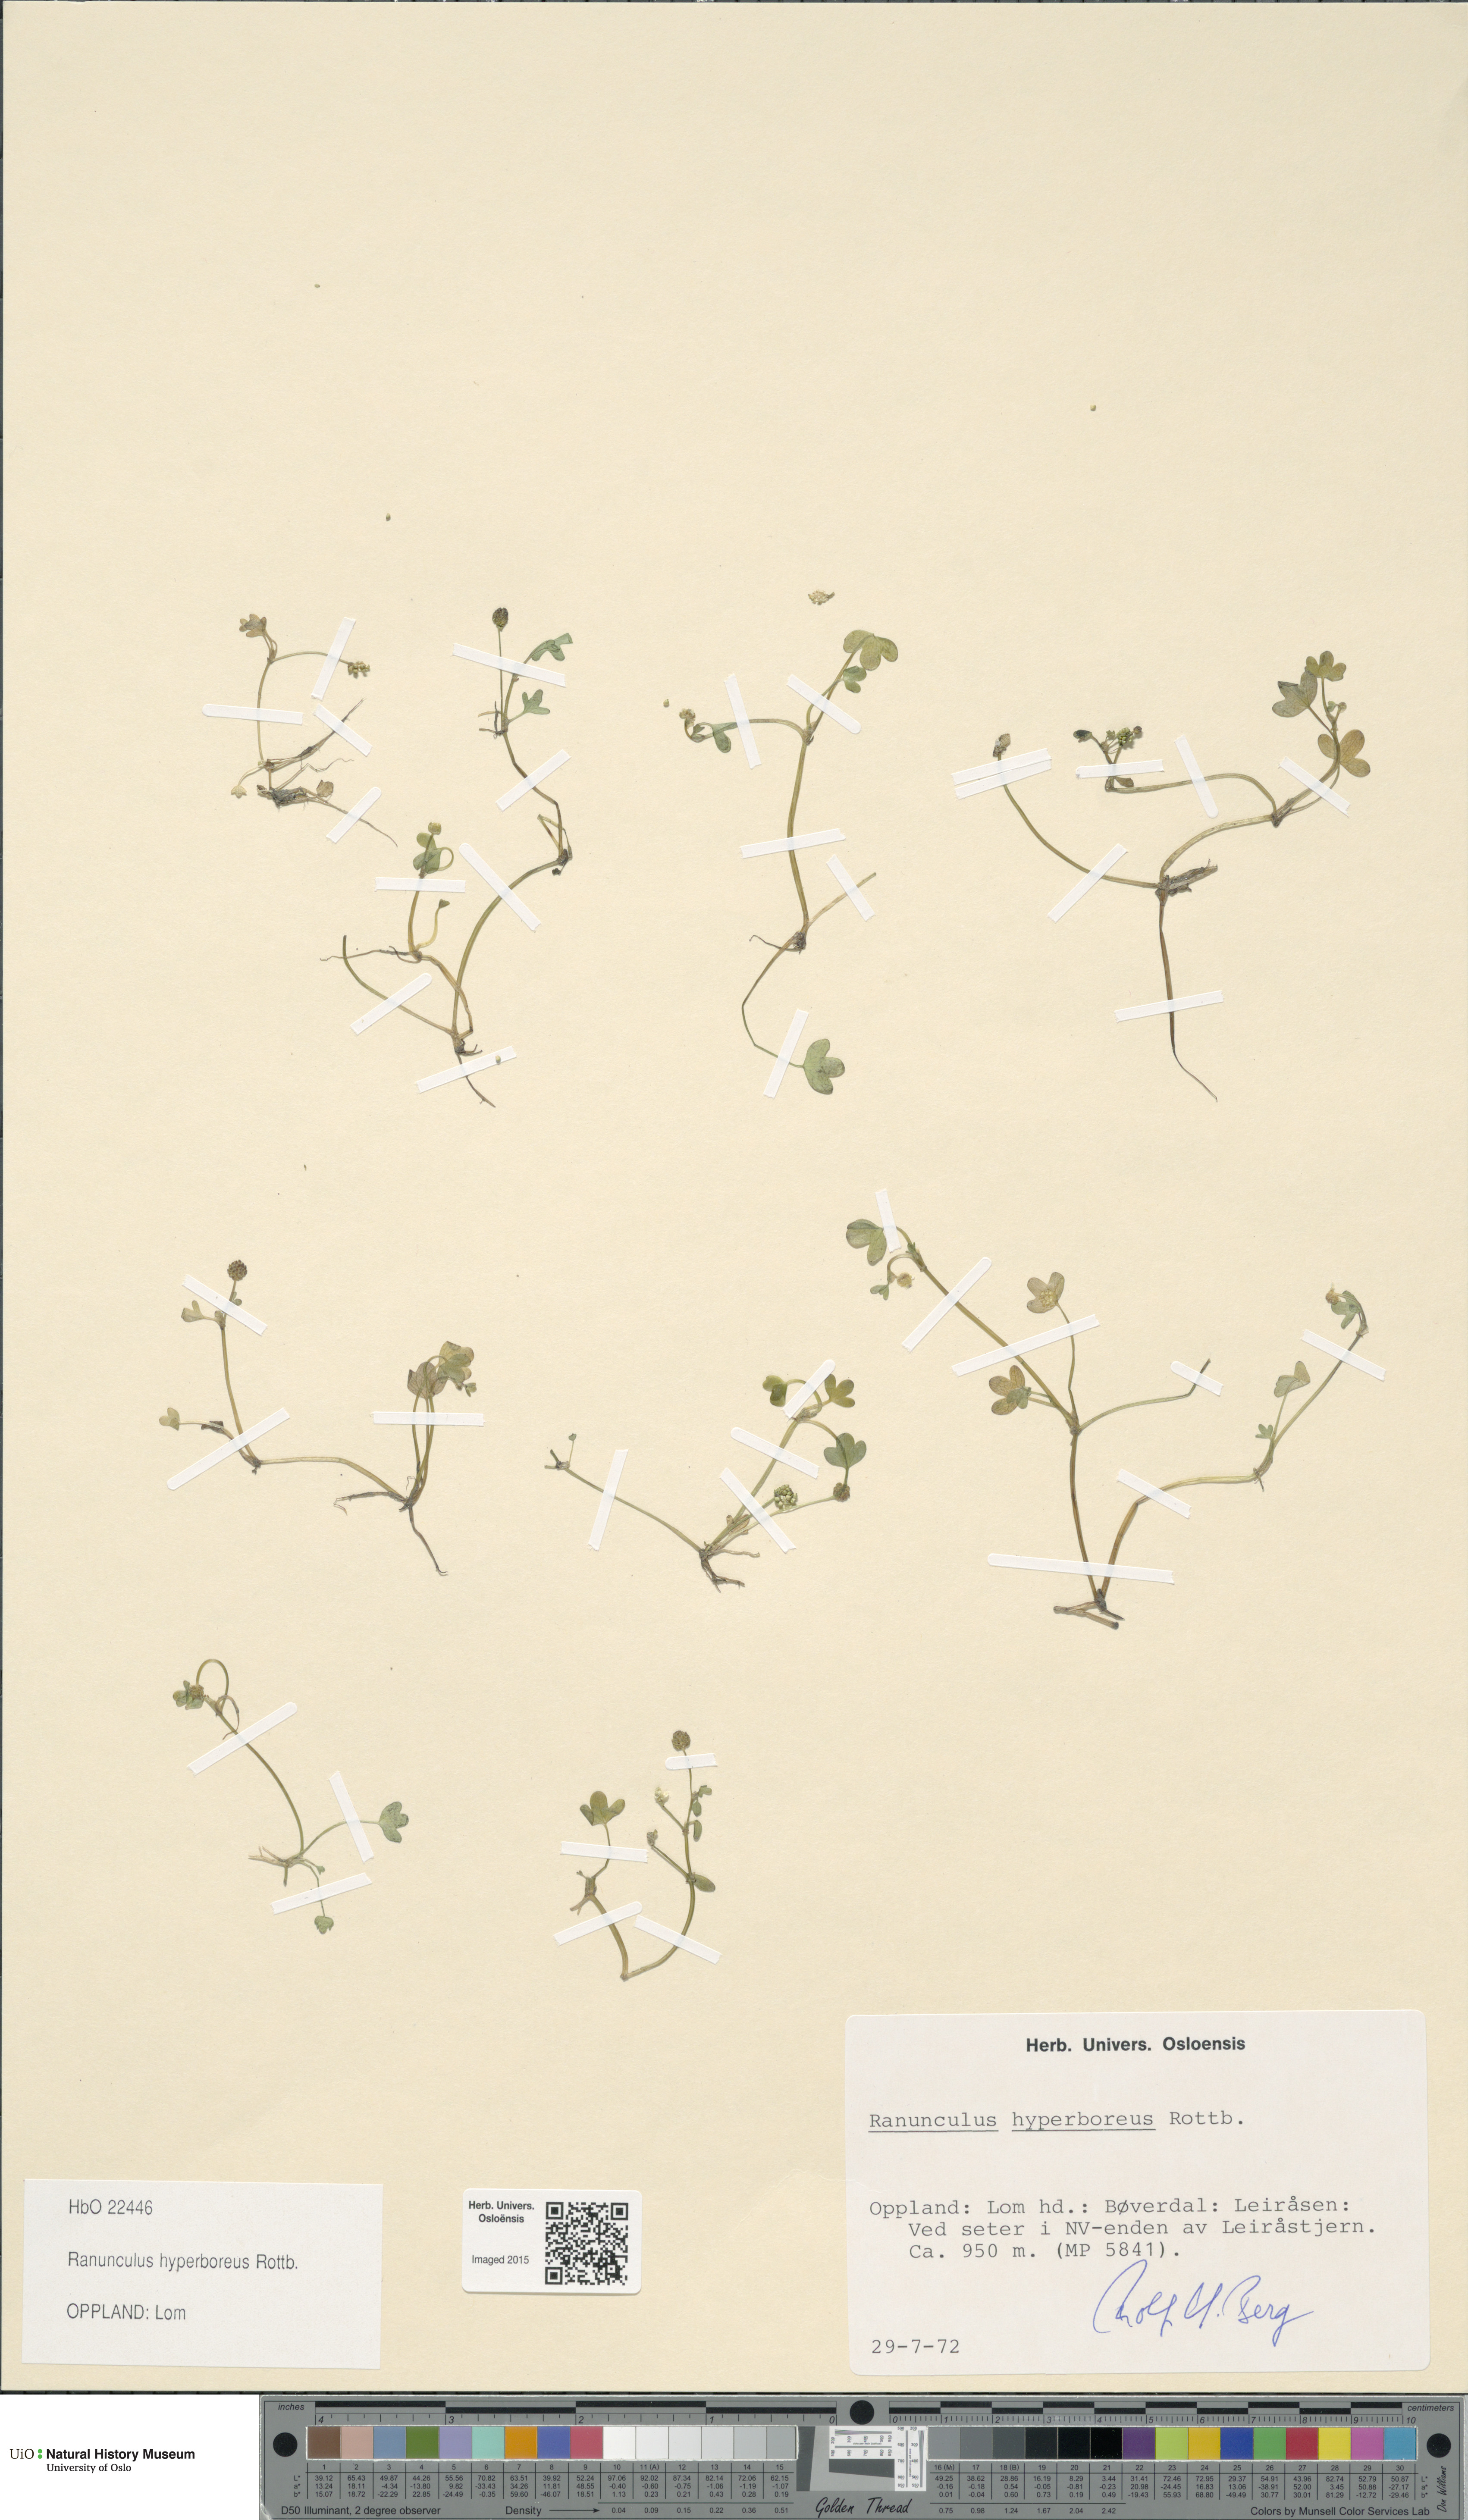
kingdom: Plantae
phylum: Tracheophyta
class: Magnoliopsida
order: Ranunculales
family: Ranunculaceae
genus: Ranunculus
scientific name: Ranunculus hyperboreus
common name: Arctic buttercup
